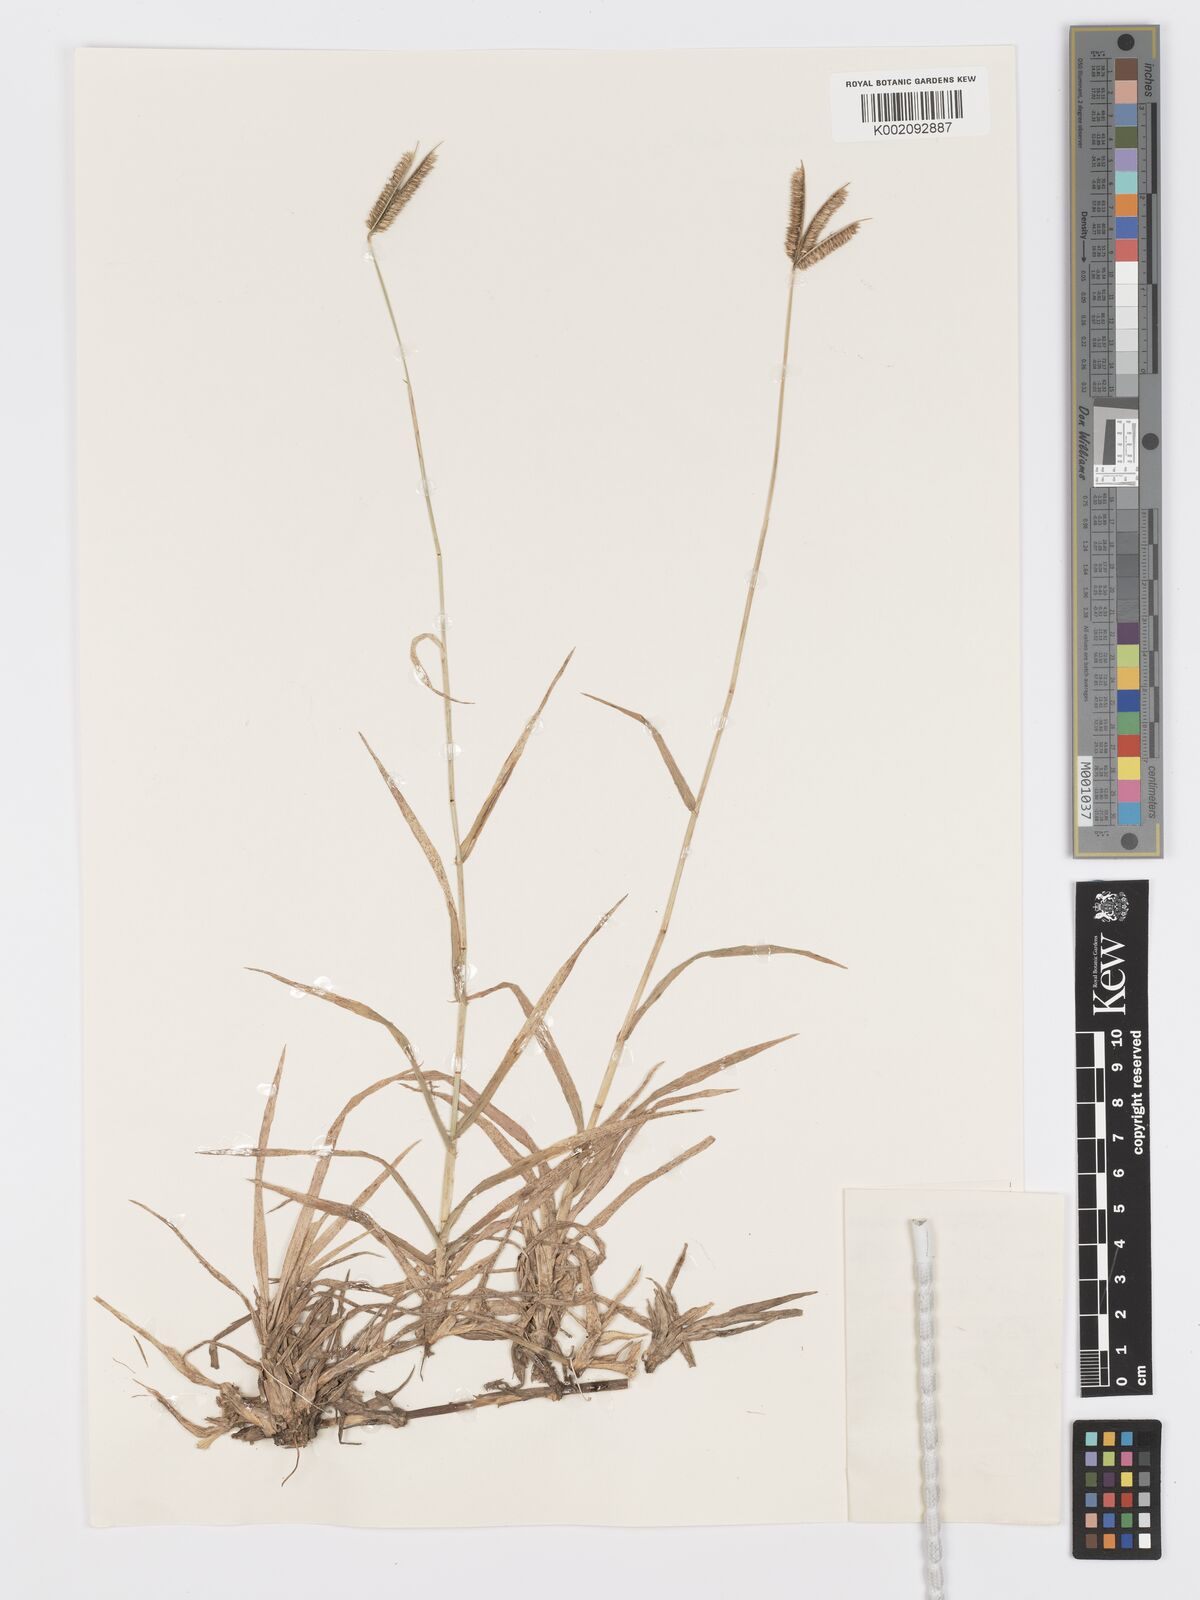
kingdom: Plantae
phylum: Tracheophyta
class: Liliopsida
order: Poales
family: Poaceae
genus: Dactyloctenium
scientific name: Dactyloctenium australe
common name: Durban grass
